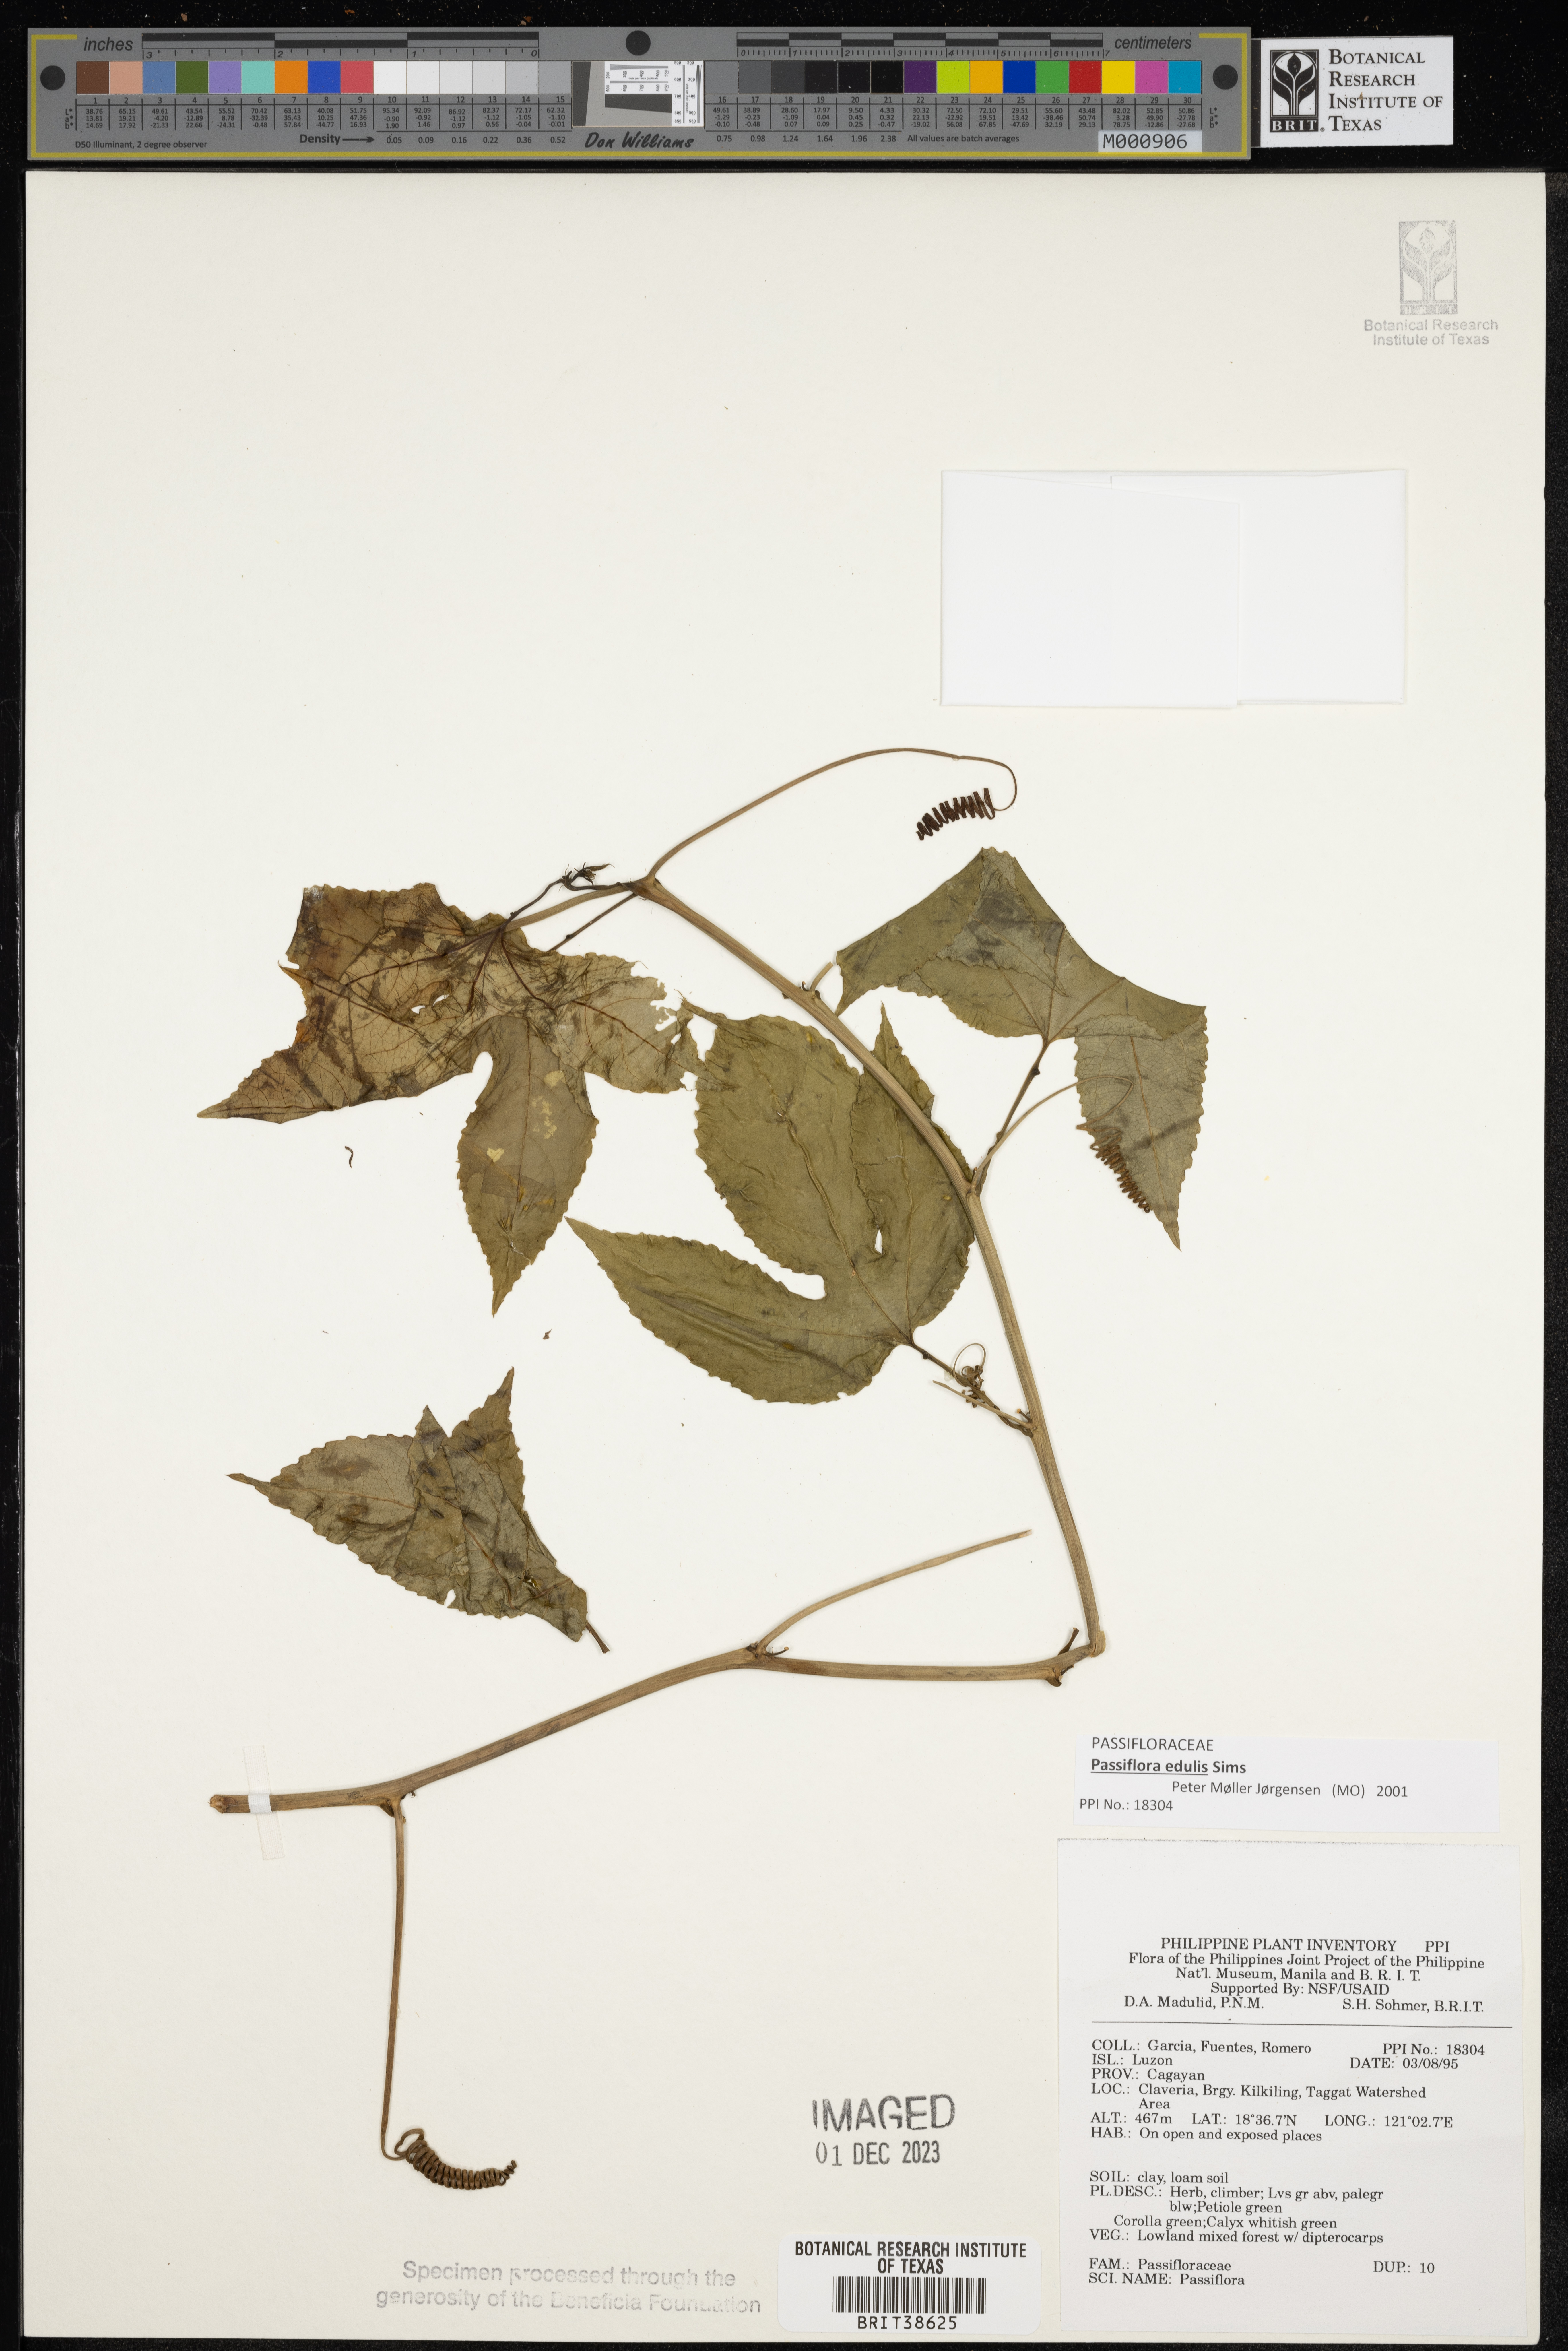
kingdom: Plantae
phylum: Tracheophyta
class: Magnoliopsida
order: Malpighiales
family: Passifloraceae
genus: Passiflora
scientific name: Passiflora
